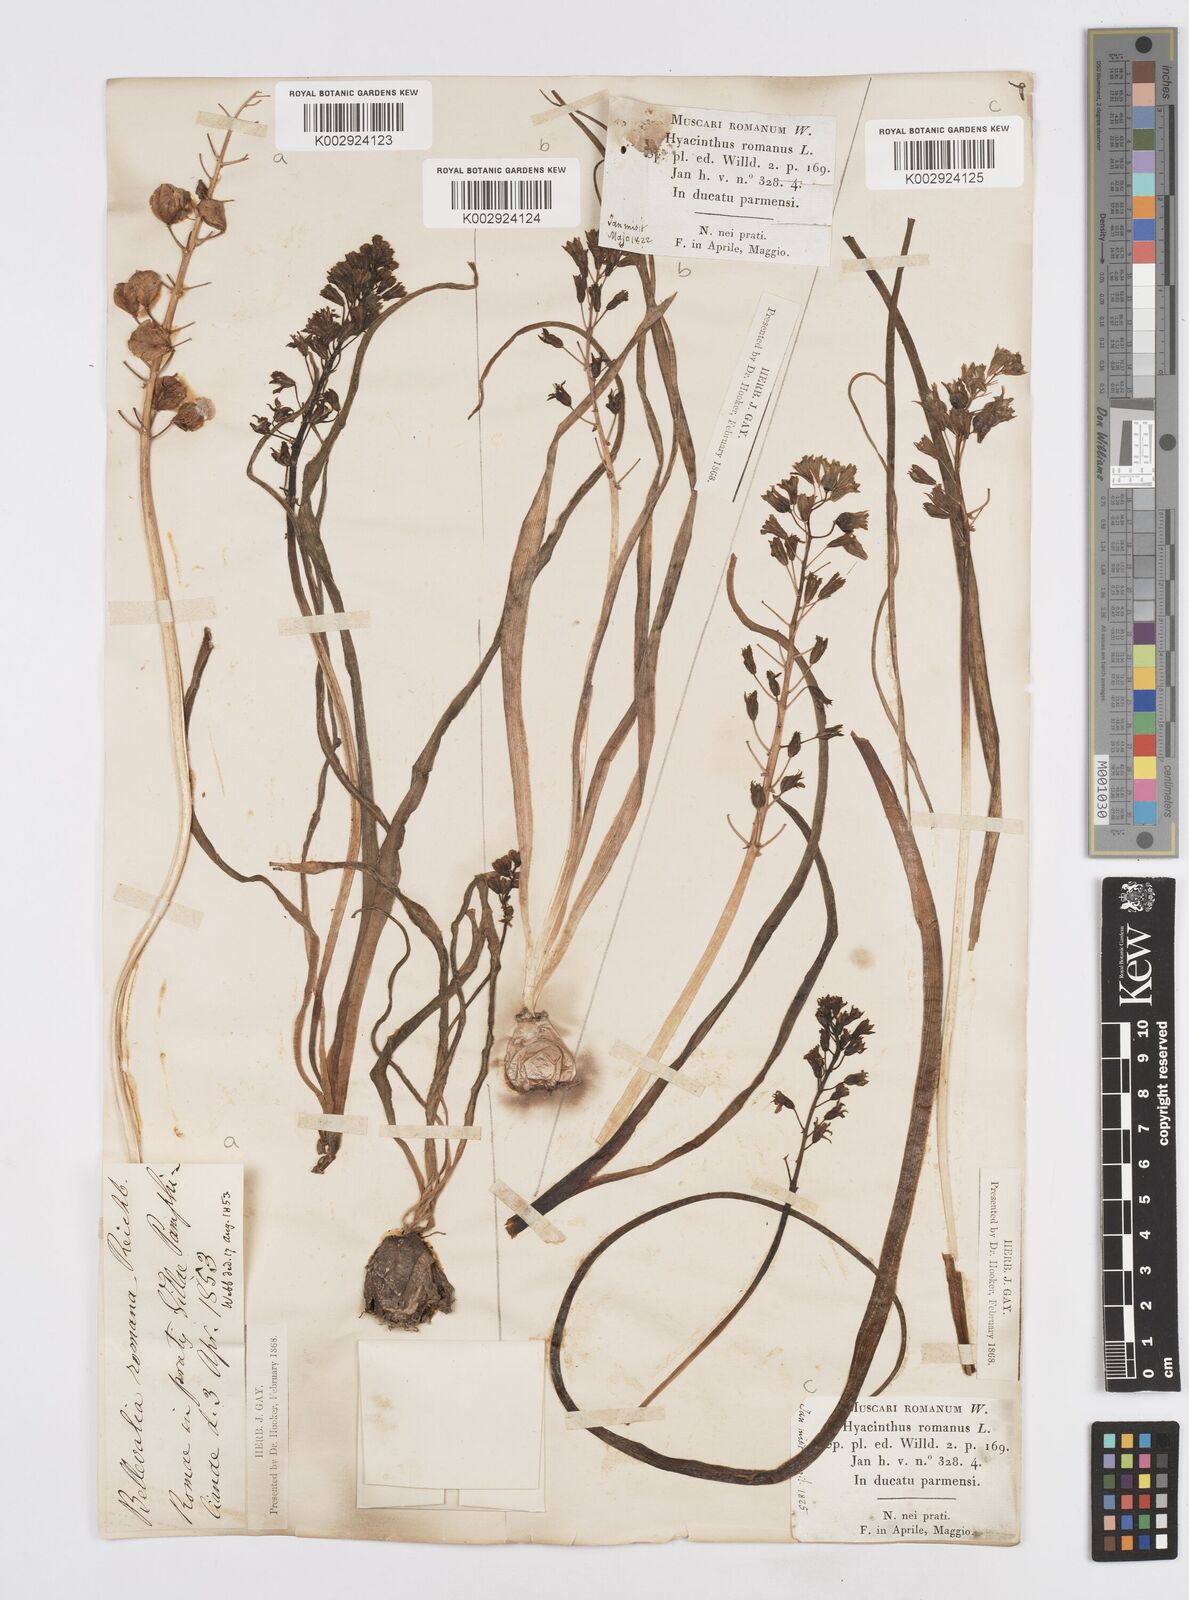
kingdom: Plantae
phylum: Tracheophyta
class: Liliopsida
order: Asparagales
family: Asparagaceae
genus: Bellevalia
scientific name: Bellevalia
